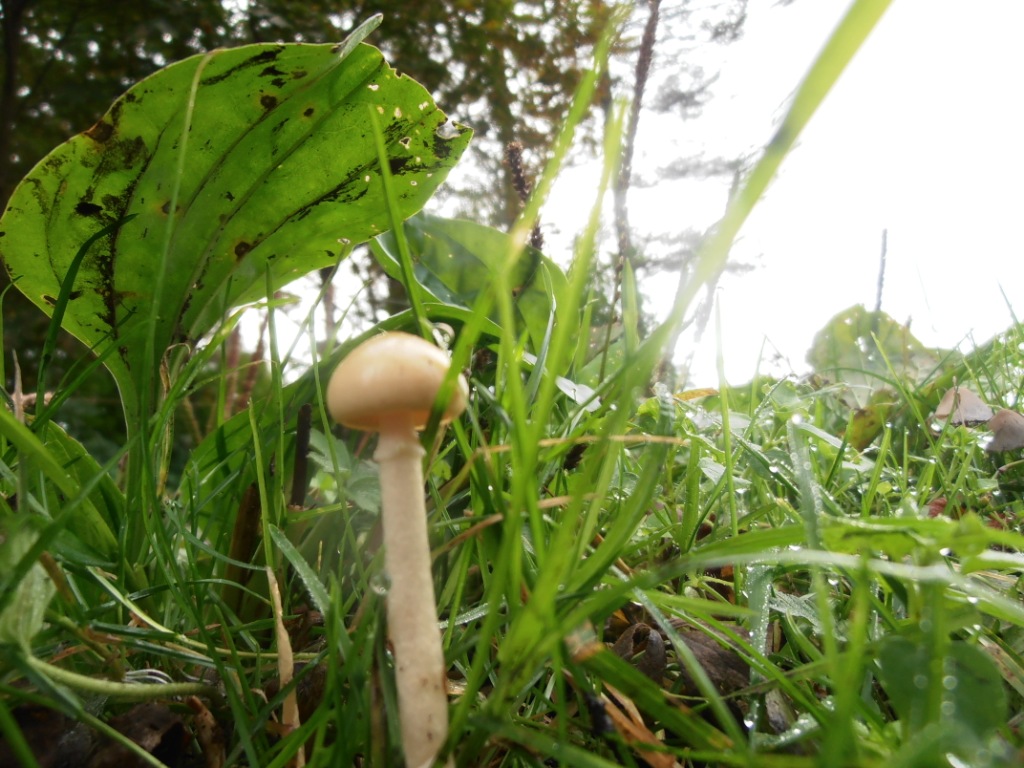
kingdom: Fungi
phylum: Basidiomycota
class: Agaricomycetes
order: Agaricales
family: Strophariaceae
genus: Protostropharia
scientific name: Protostropharia semiglobata
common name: halvkugleformet bredblad
